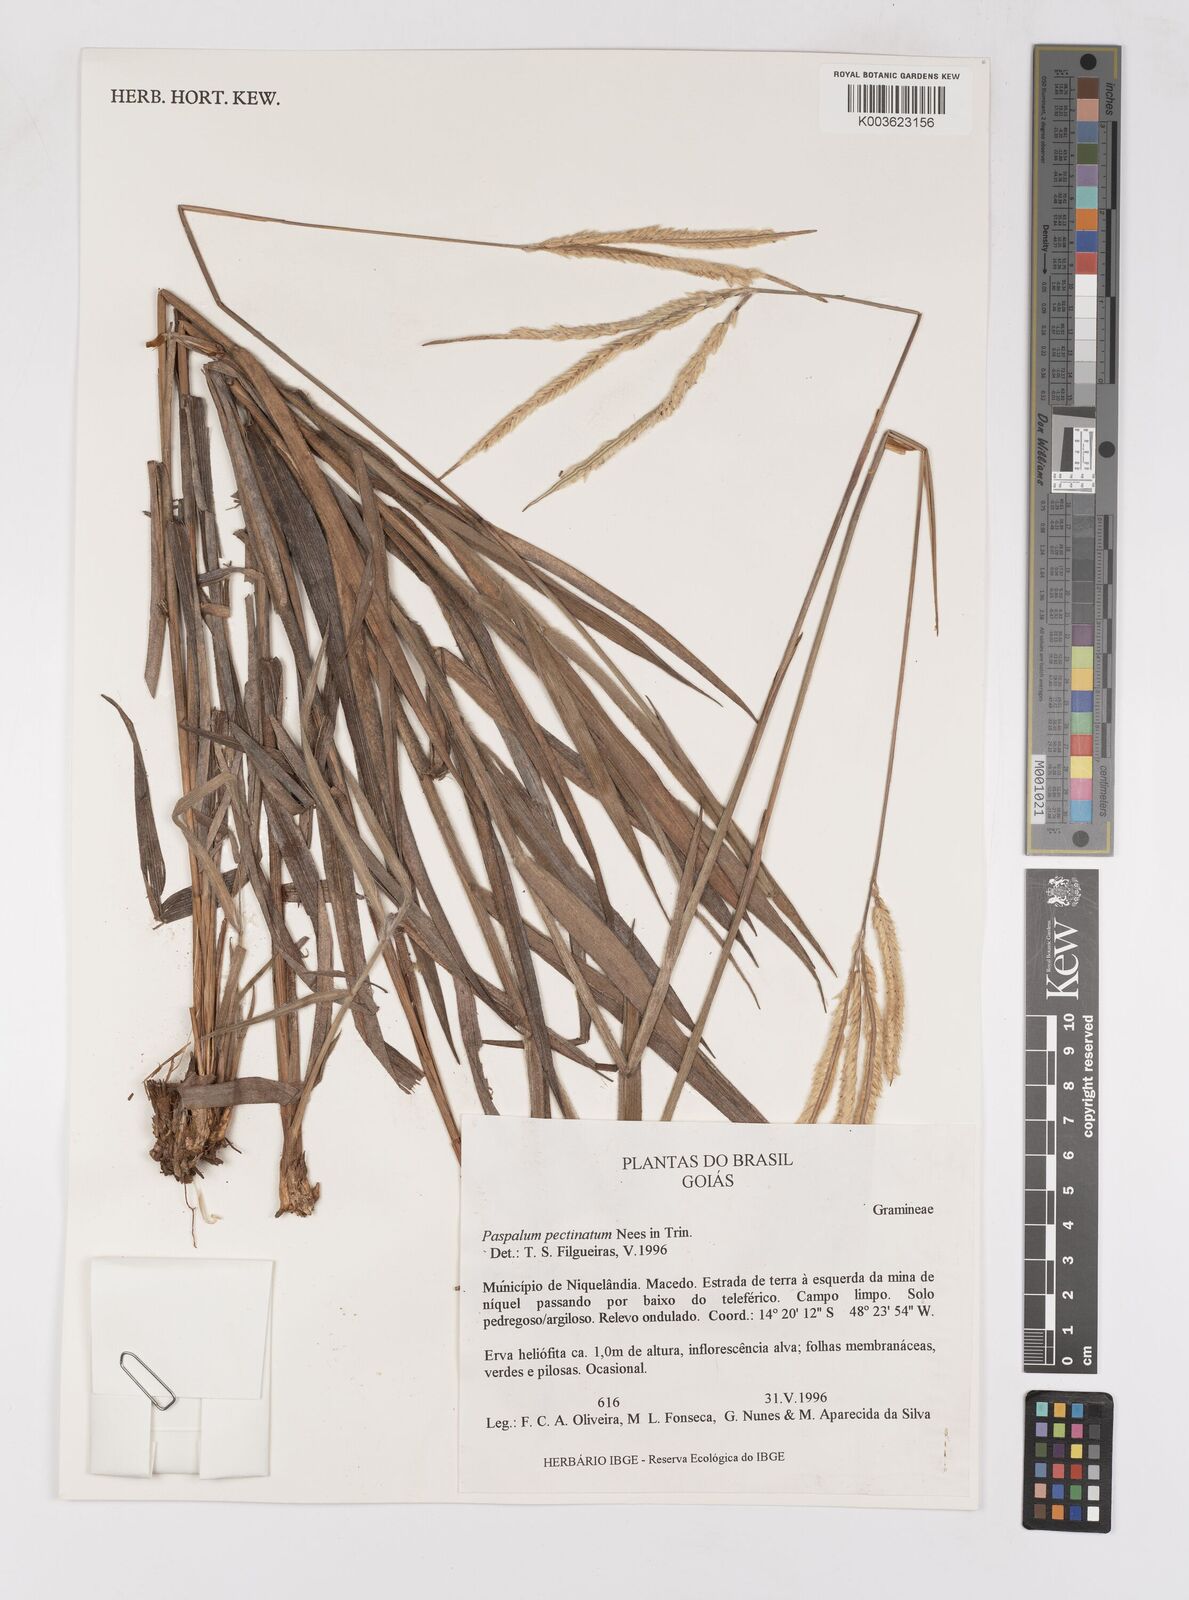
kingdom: Plantae
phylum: Tracheophyta
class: Liliopsida
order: Poales
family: Poaceae
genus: Paspalum
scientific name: Paspalum pectinatum
